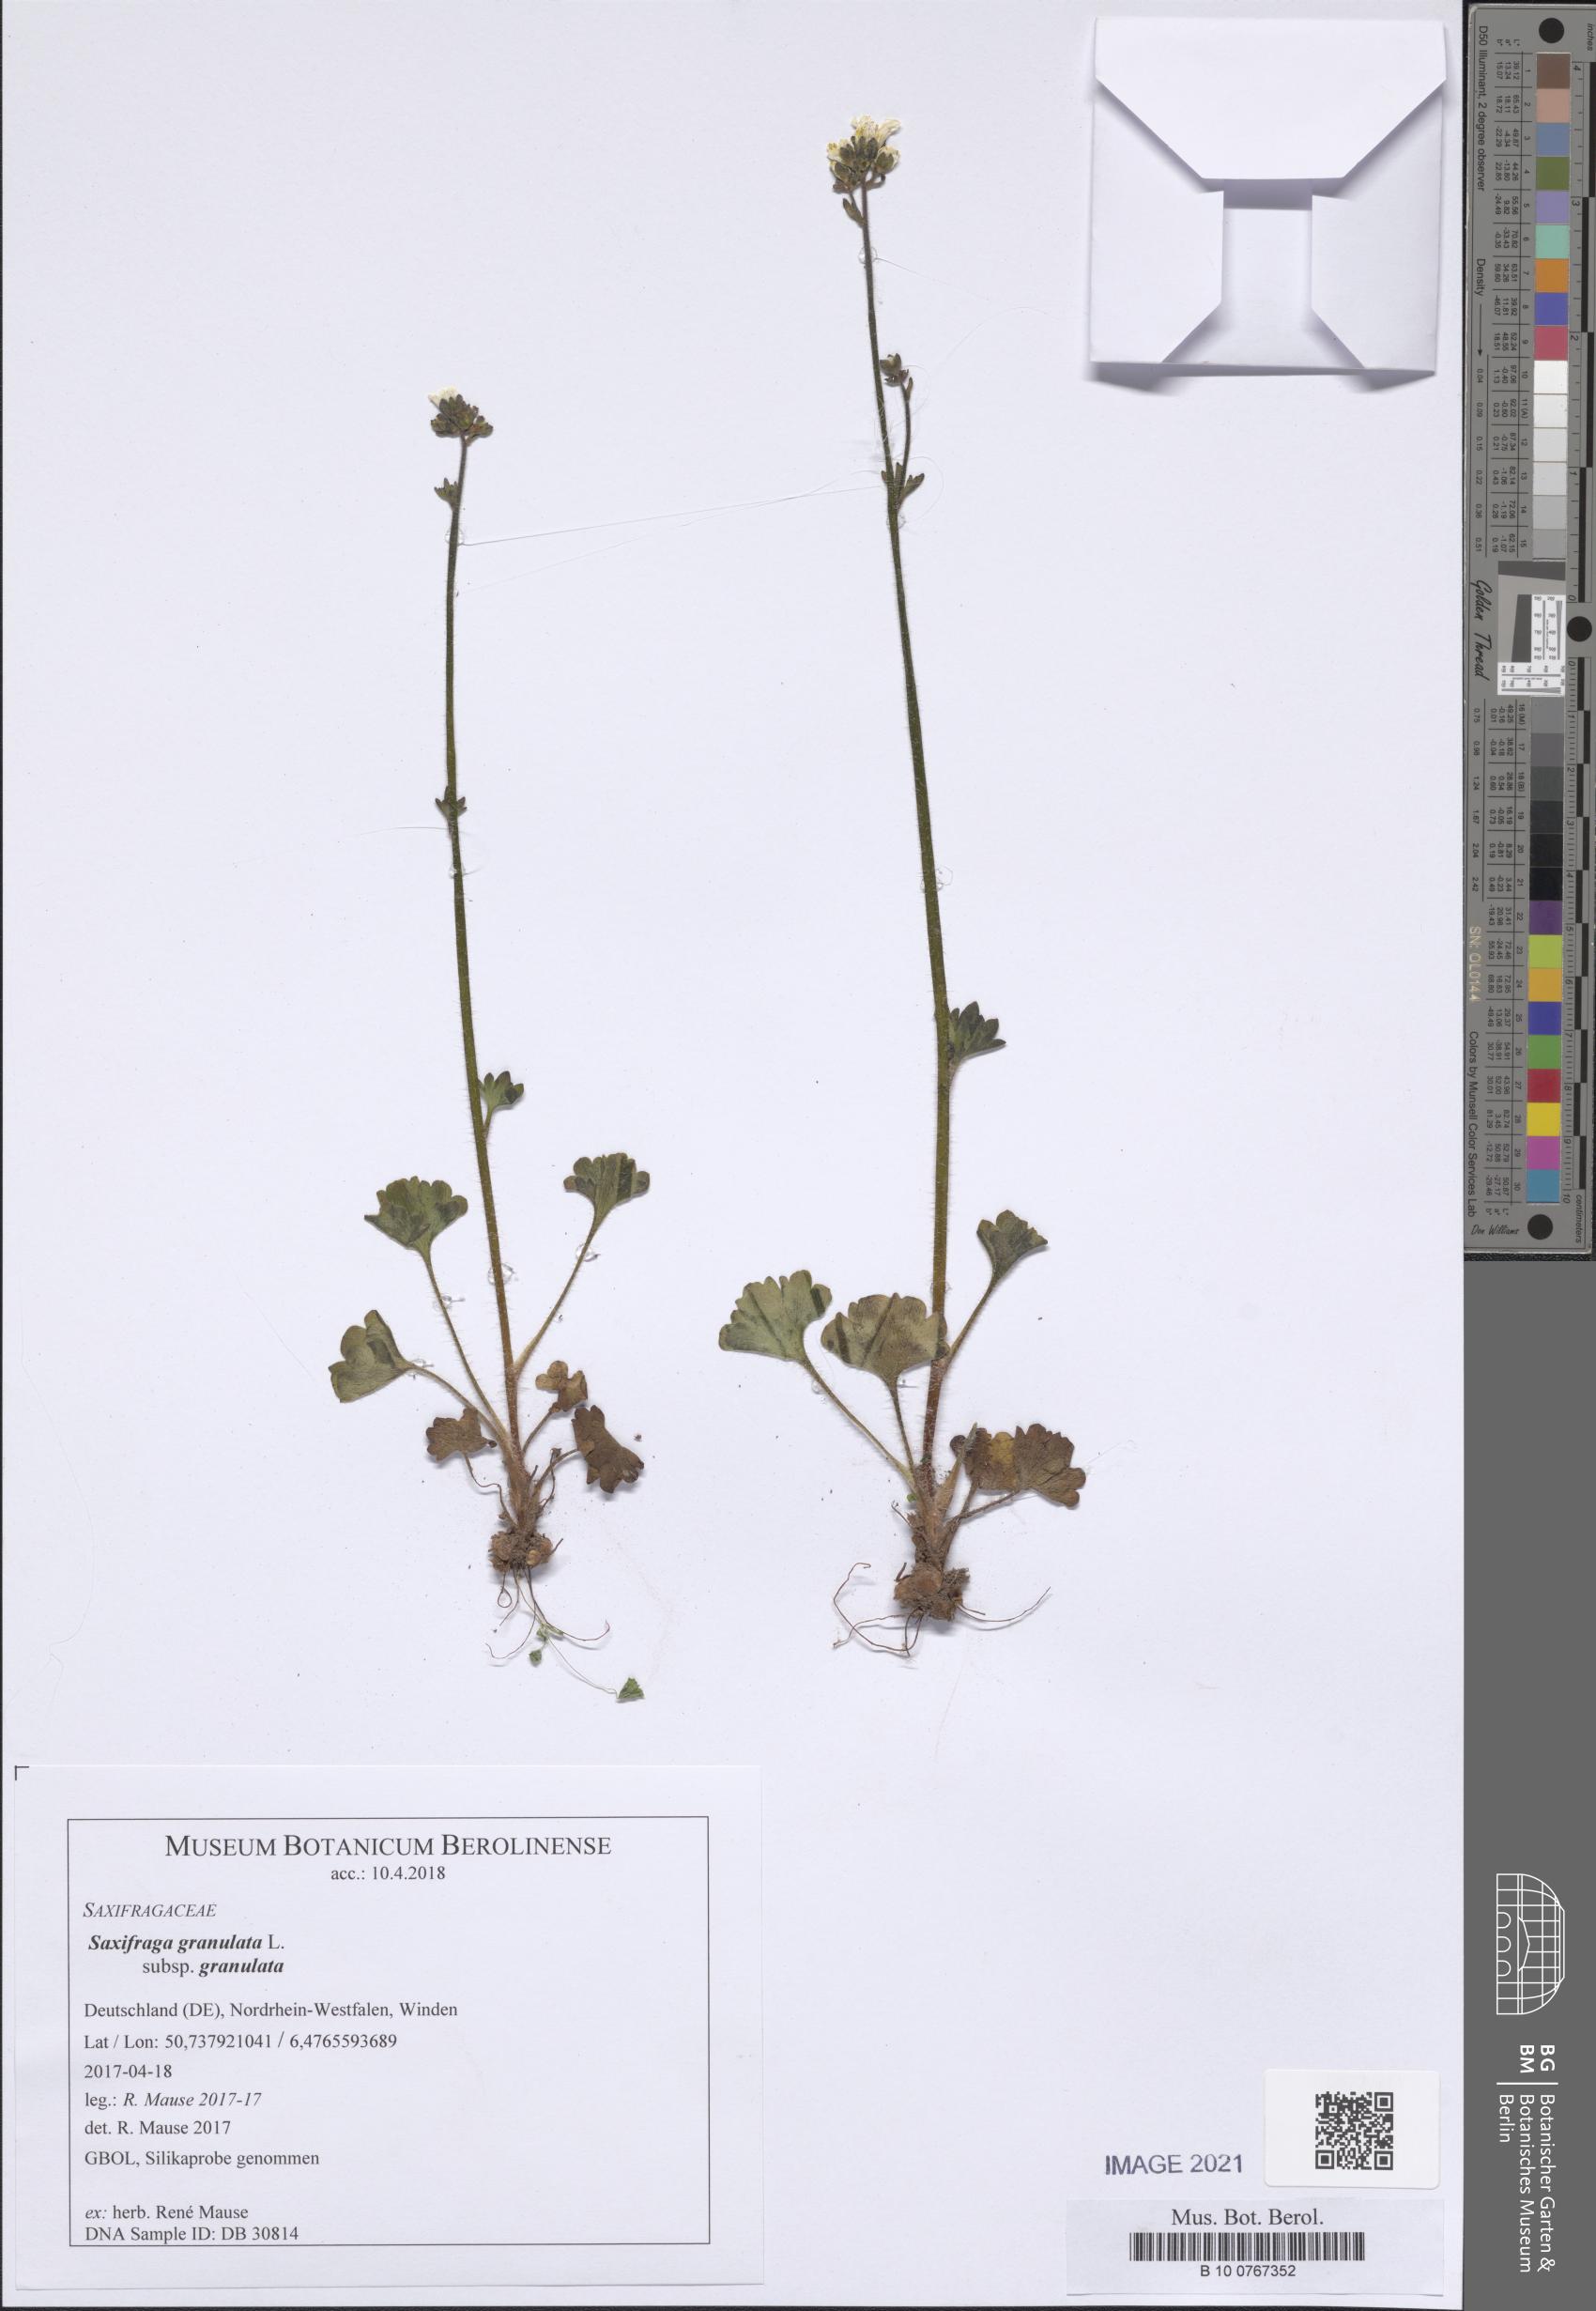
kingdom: Plantae
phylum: Tracheophyta
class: Magnoliopsida
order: Saxifragales
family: Saxifragaceae
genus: Saxifraga
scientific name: Saxifraga granulata
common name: Meadow saxifrage
